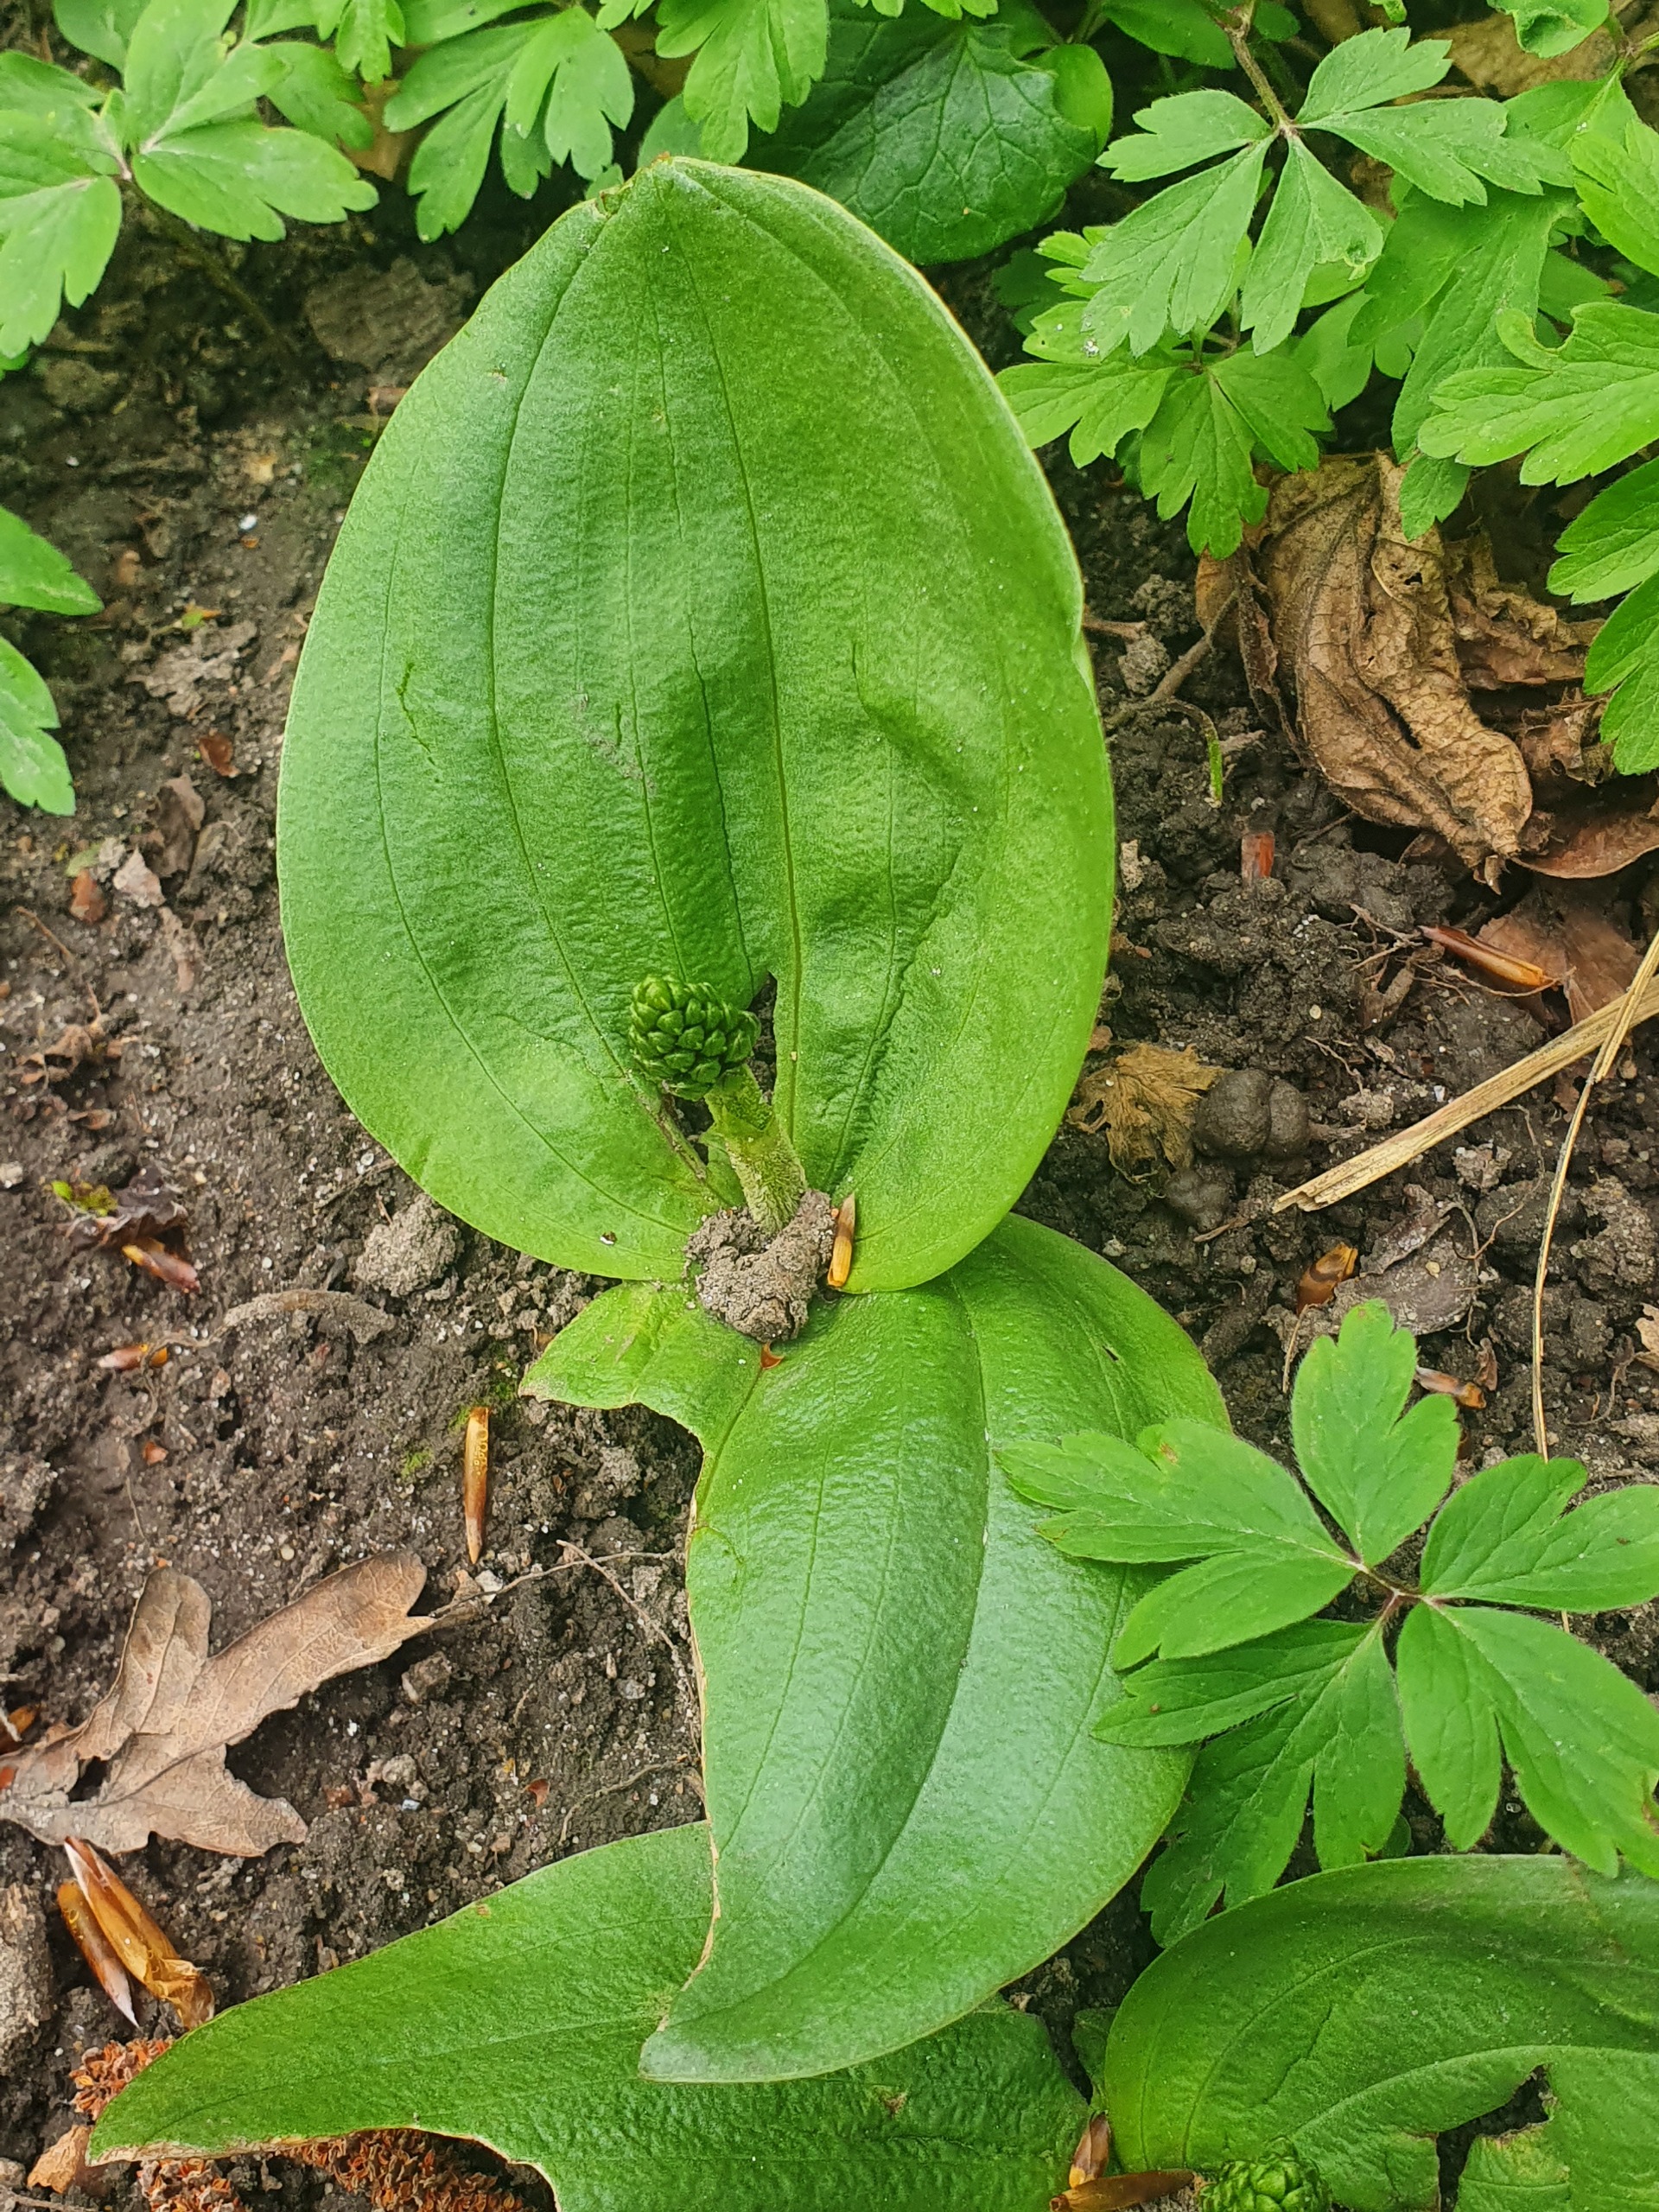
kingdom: Plantae
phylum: Tracheophyta
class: Liliopsida
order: Asparagales
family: Orchidaceae
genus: Neottia
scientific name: Neottia ovata
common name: Ægbladet fliglæbe
